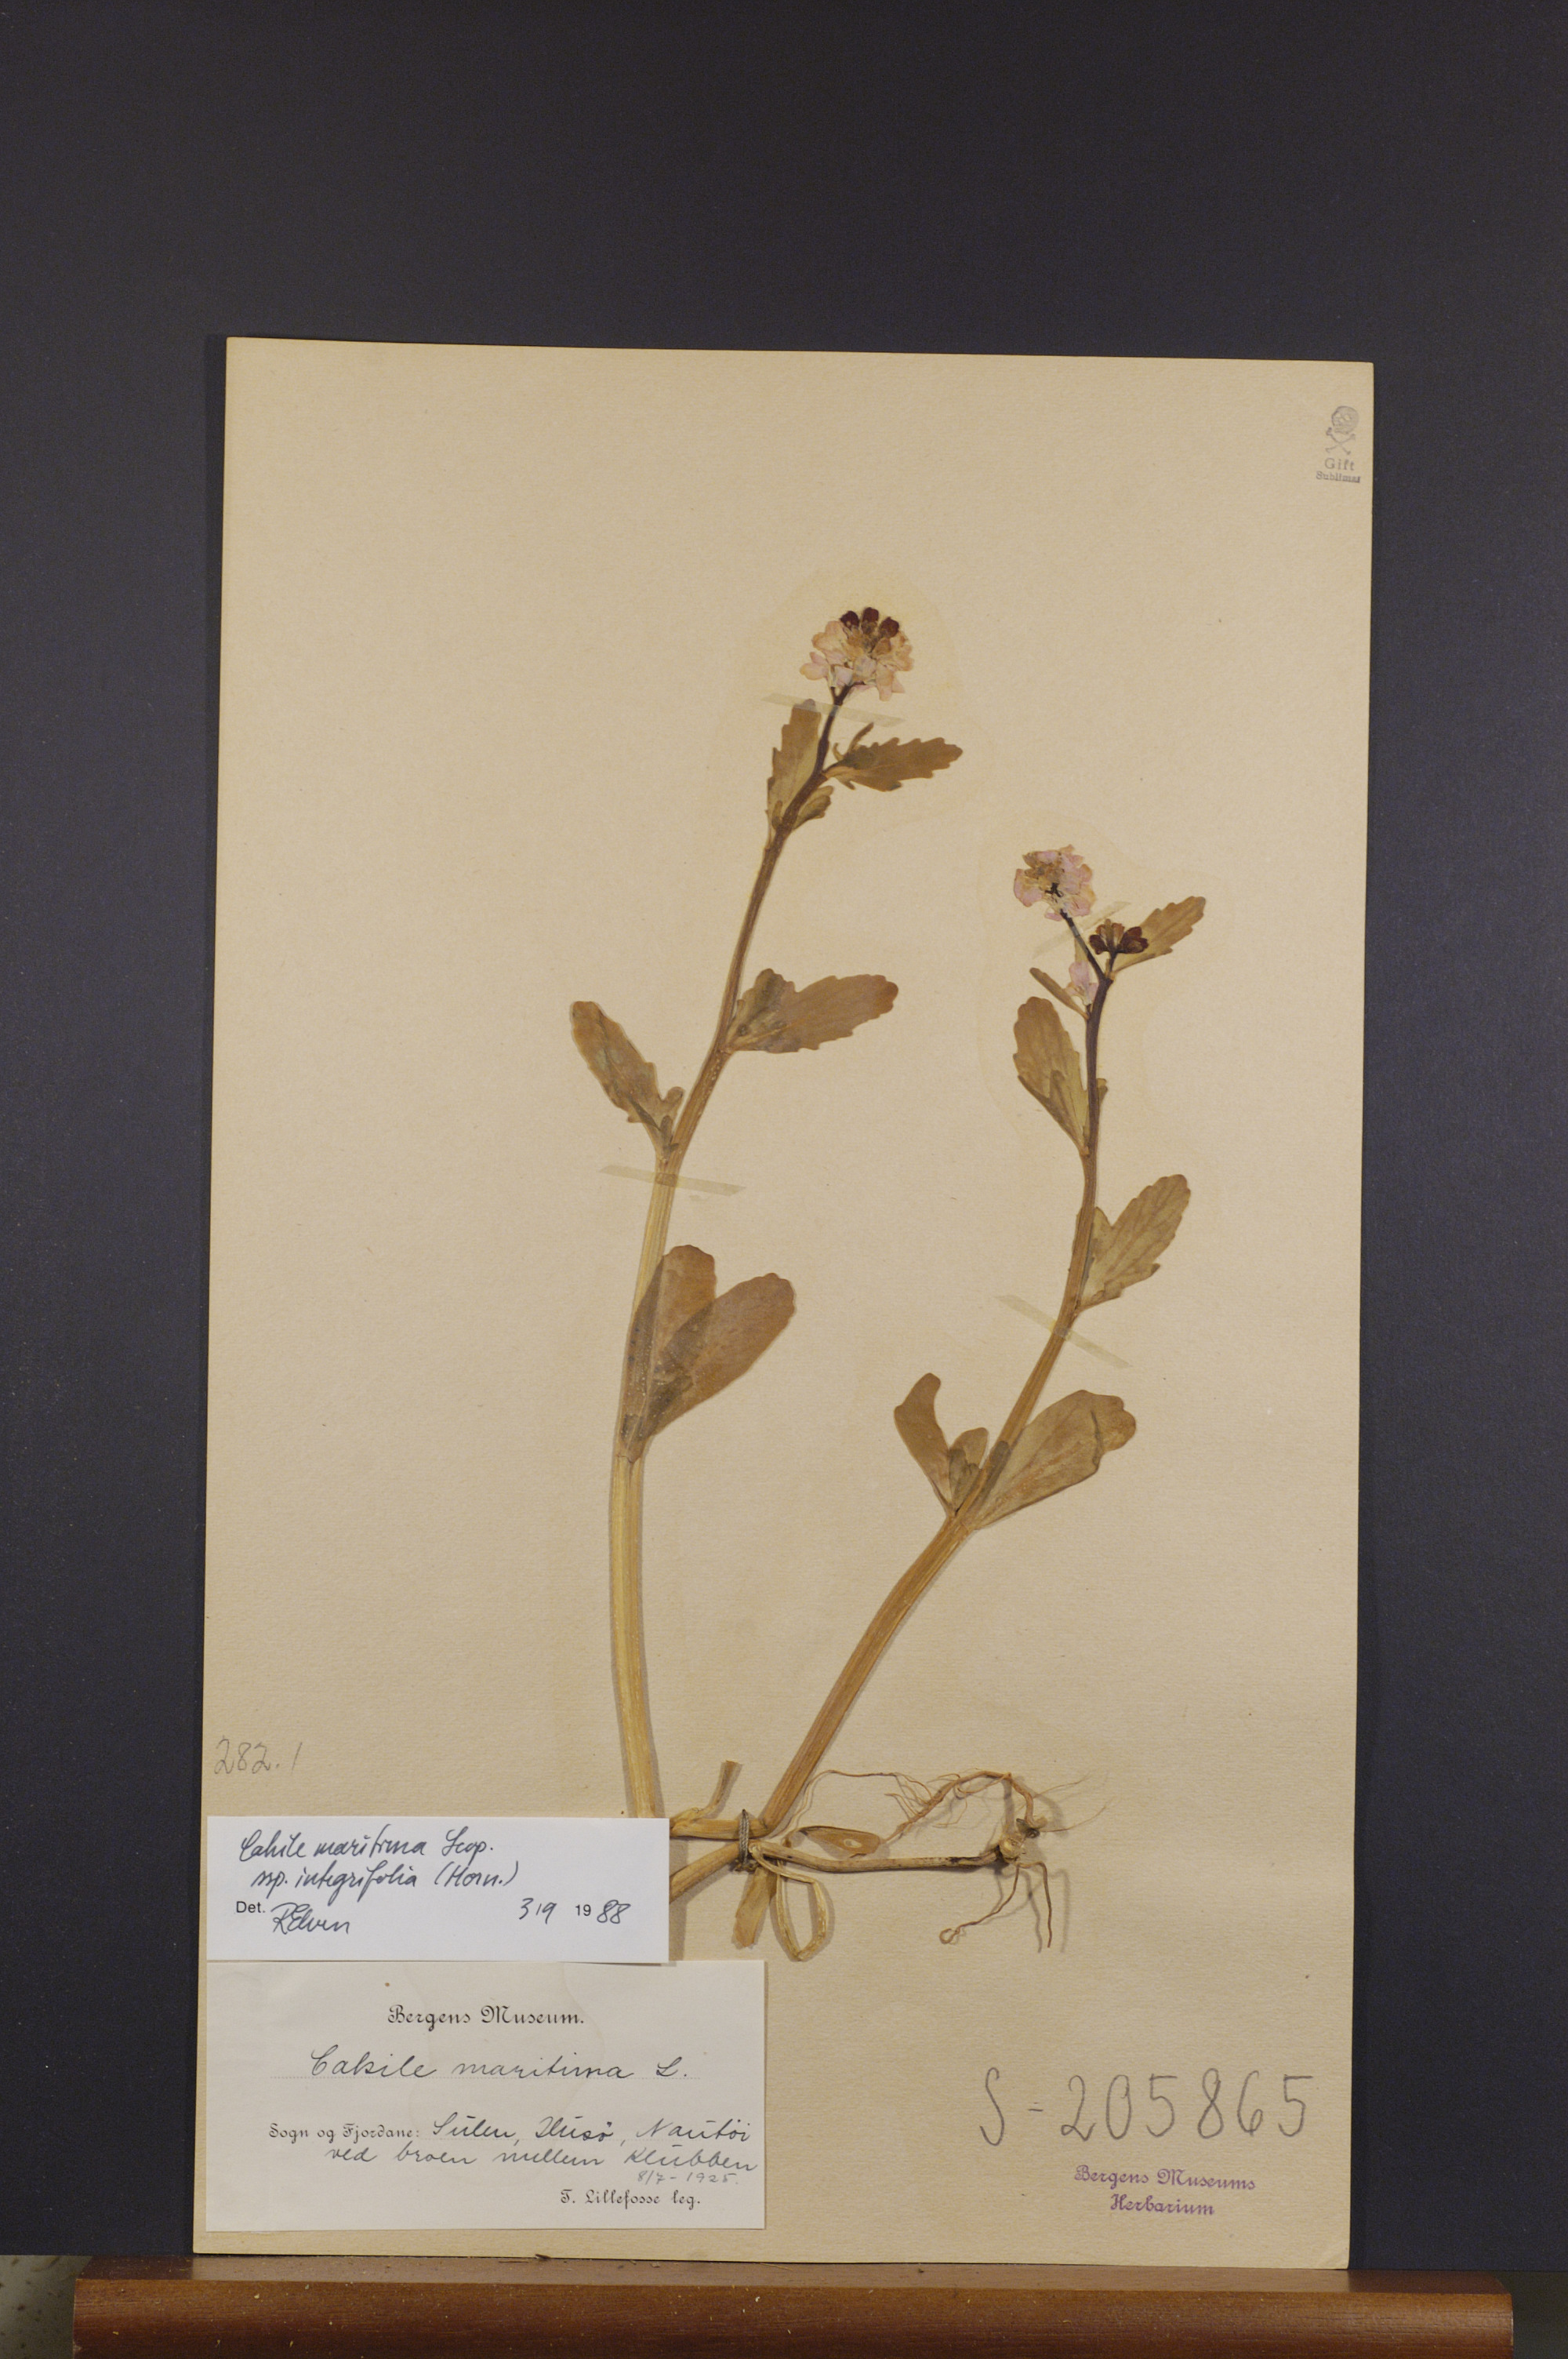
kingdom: Plantae
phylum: Tracheophyta
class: Magnoliopsida
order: Brassicales
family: Brassicaceae
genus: Cakile
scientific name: Cakile maritima
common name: Sea rocket
